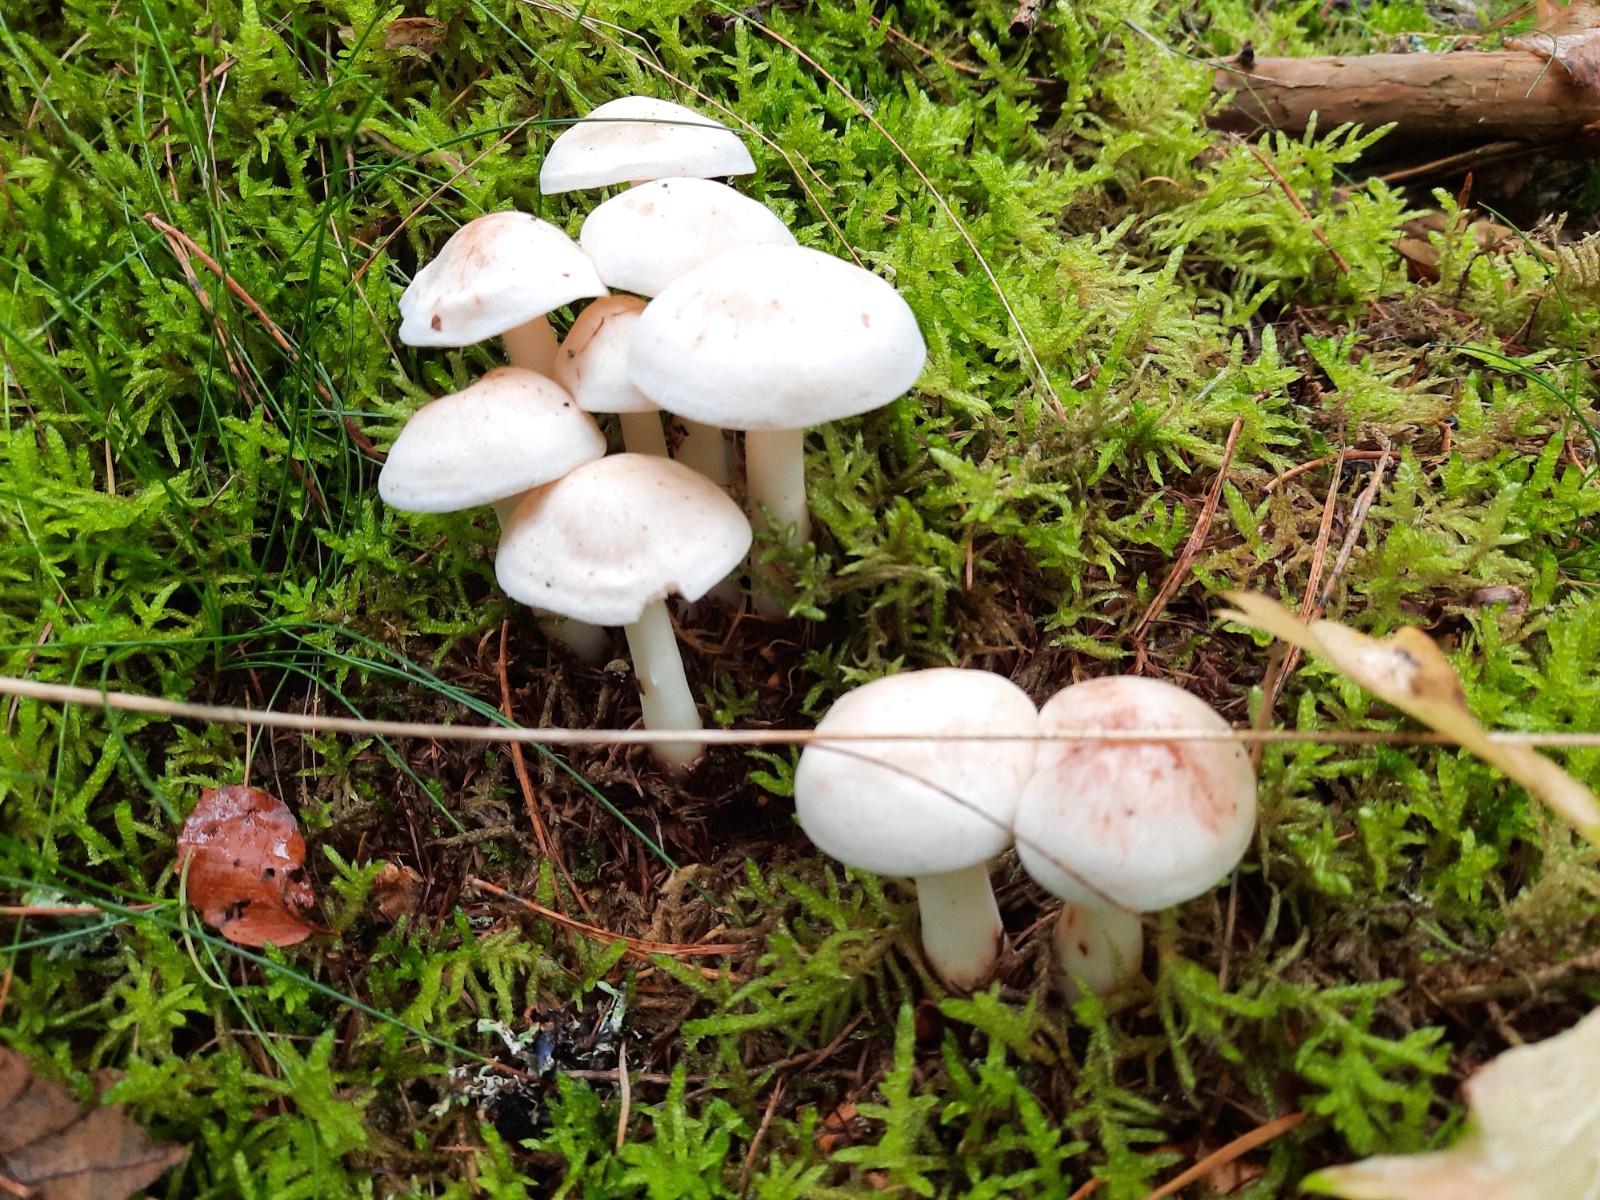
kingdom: Fungi
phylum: Basidiomycota
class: Agaricomycetes
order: Agaricales
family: Omphalotaceae
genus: Rhodocollybia
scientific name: Rhodocollybia maculata
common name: plettet fladhat
